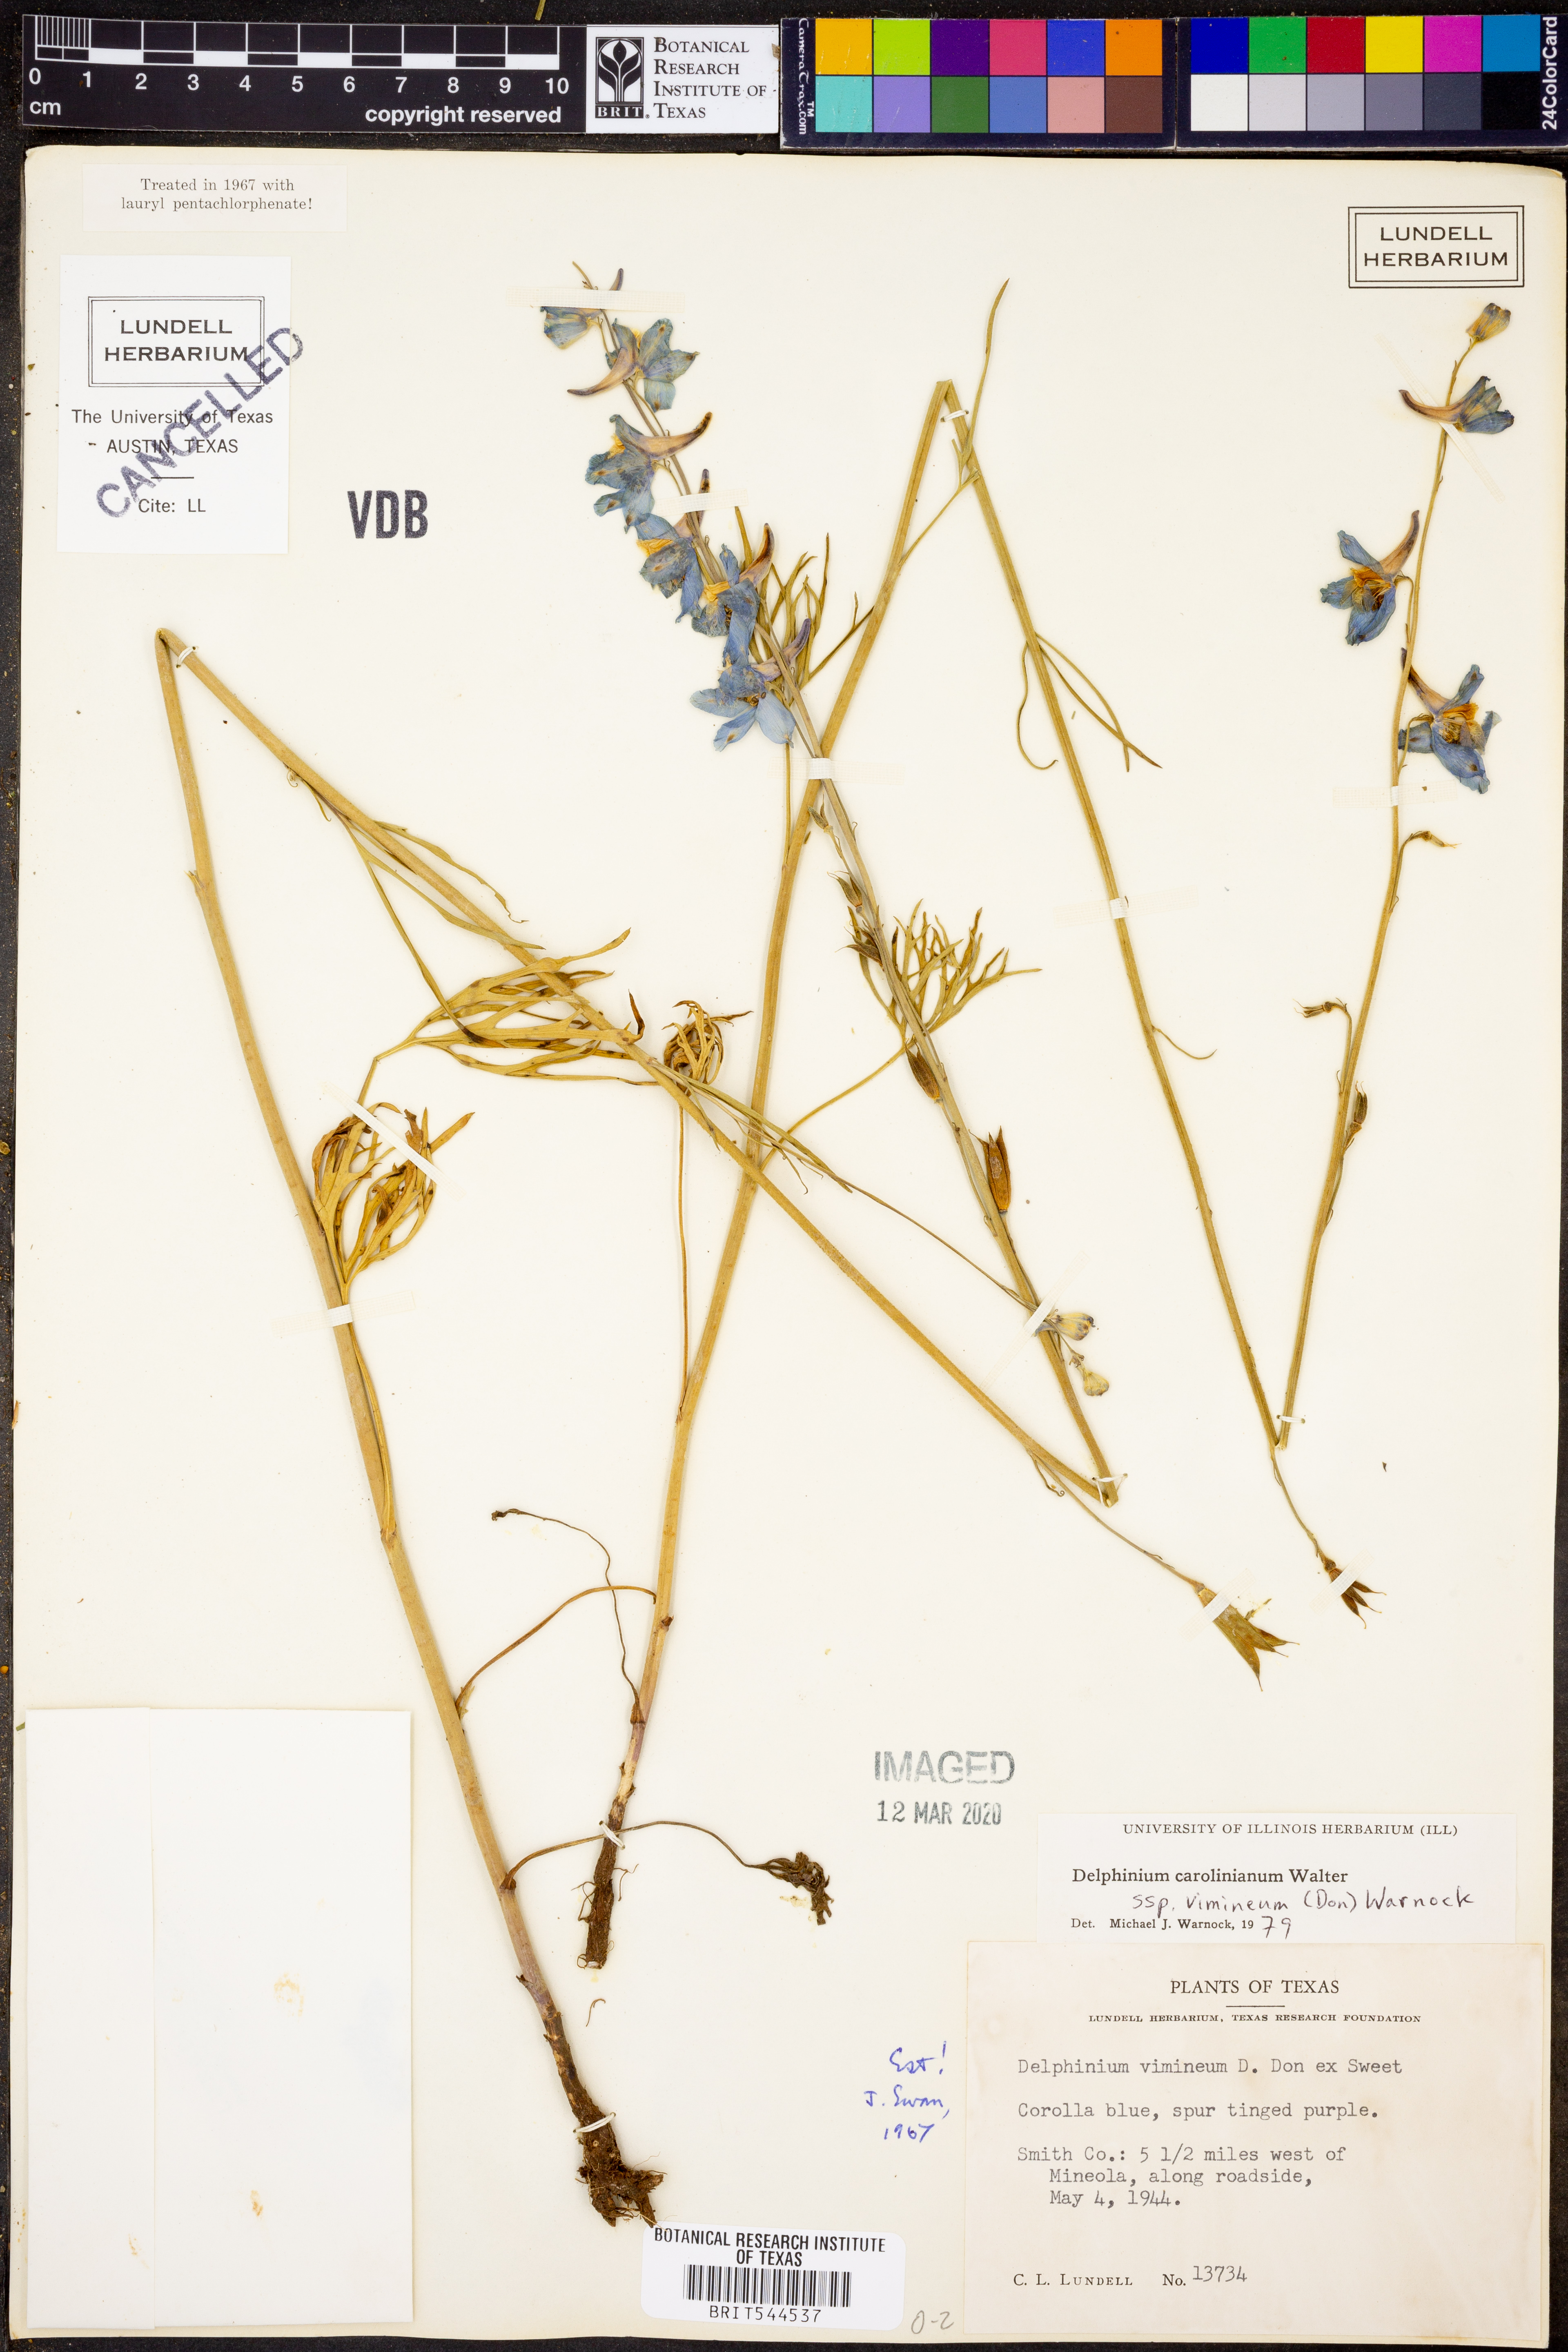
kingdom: Plantae
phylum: Tracheophyta
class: Magnoliopsida
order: Ranunculales
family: Ranunculaceae
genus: Delphinium
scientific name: Delphinium carolinianum
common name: Carolina larkspur
